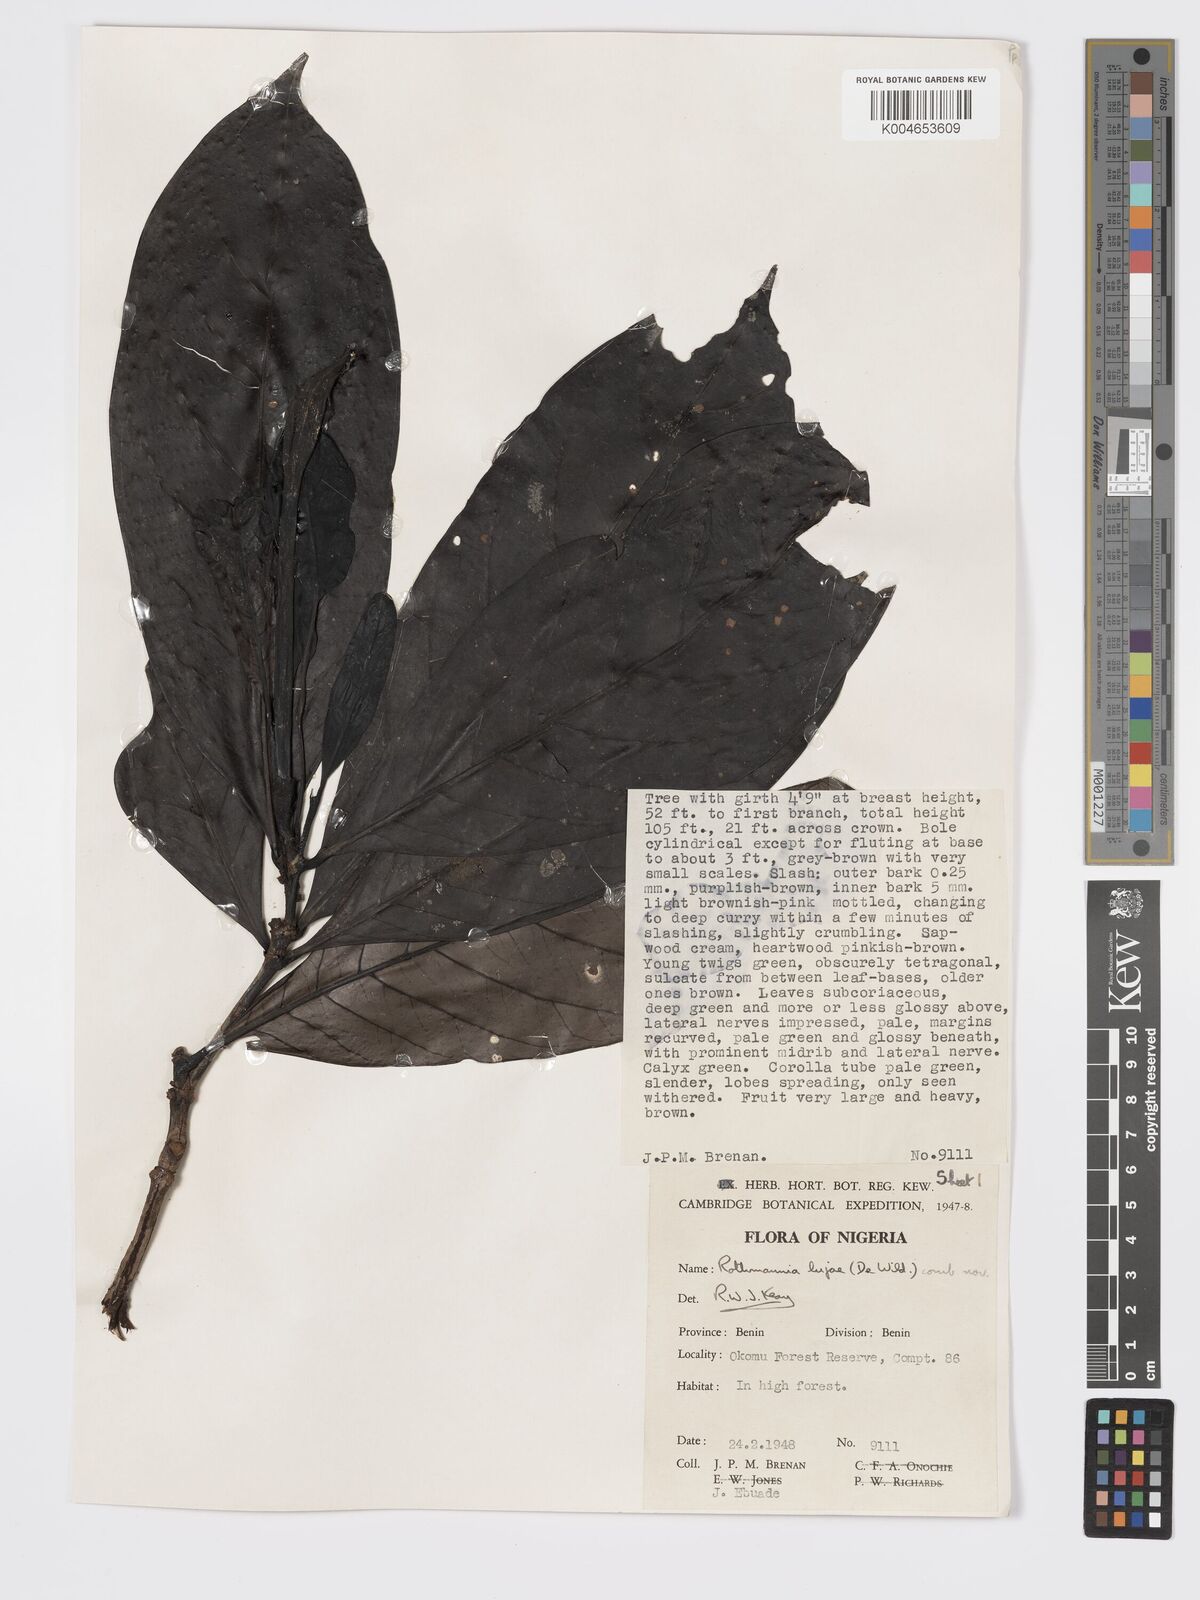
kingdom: Plantae
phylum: Tracheophyta
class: Magnoliopsida
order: Gentianales
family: Rubiaceae
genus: Rothmannia
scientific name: Rothmannia lujae
